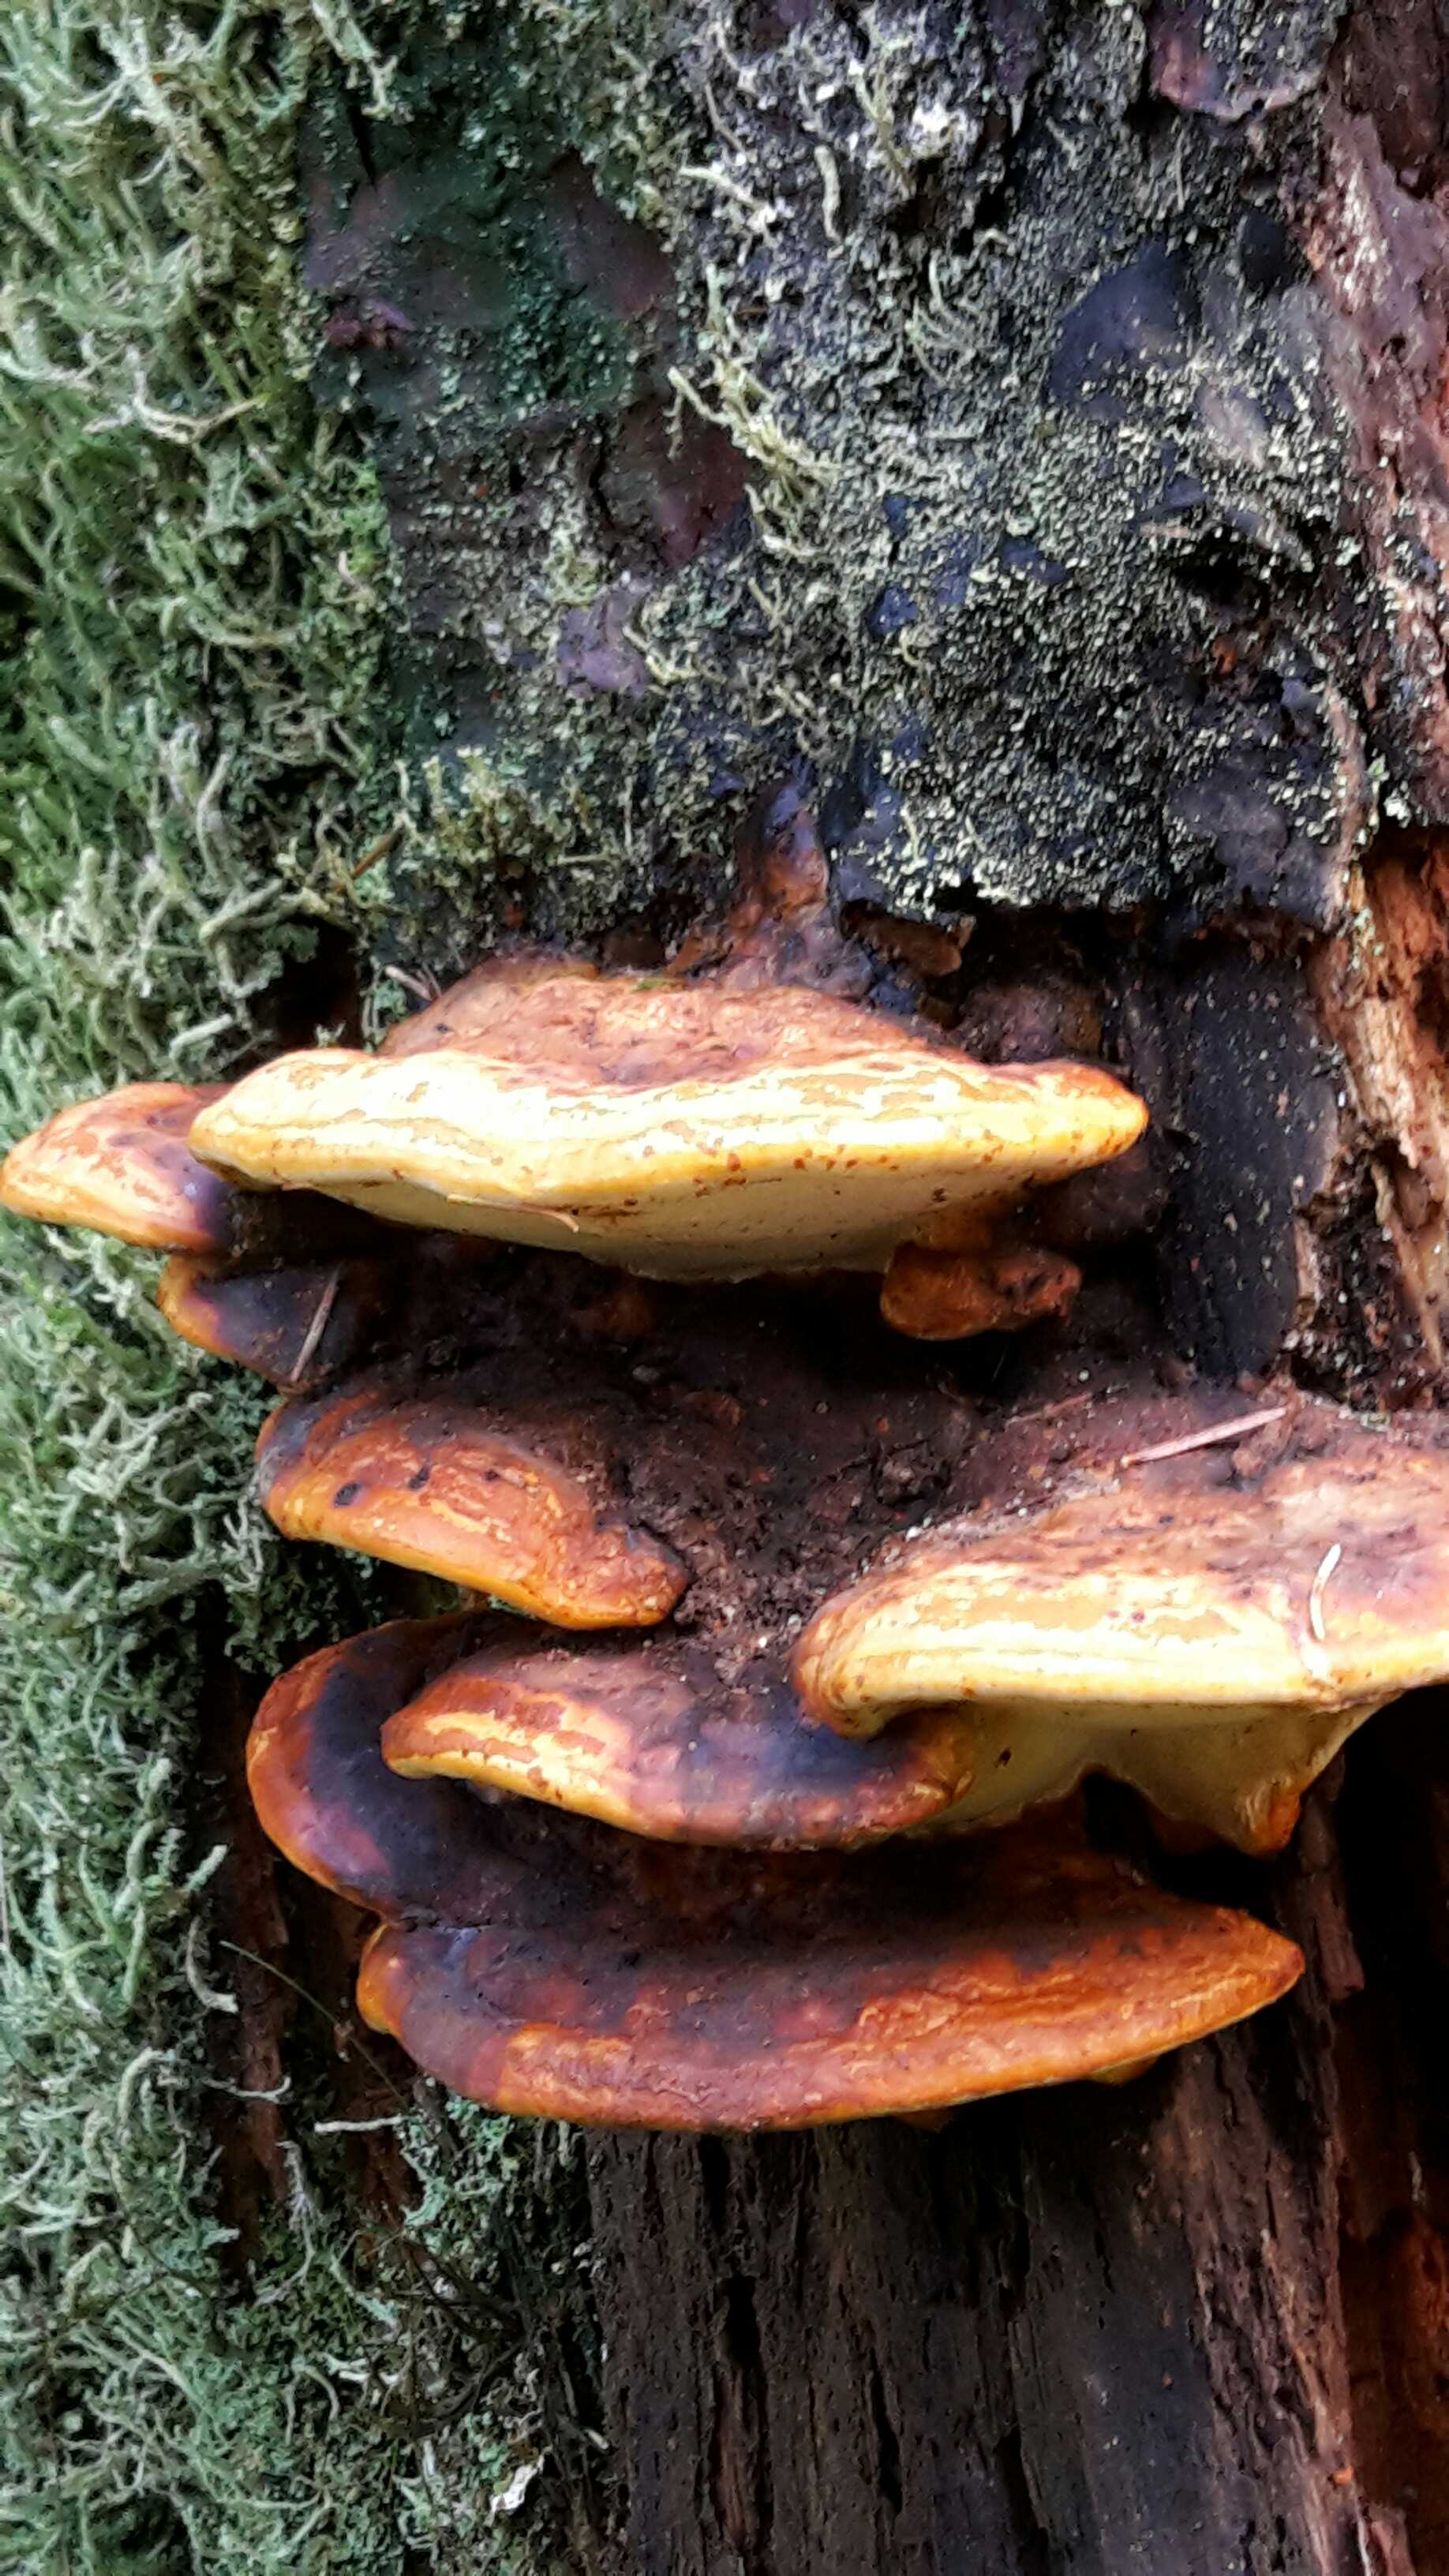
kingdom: Fungi
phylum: Basidiomycota
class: Agaricomycetes
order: Polyporales
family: Fomitopsidaceae
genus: Fomitopsis
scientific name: Fomitopsis pinicola
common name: randbæltet hovporesvamp
